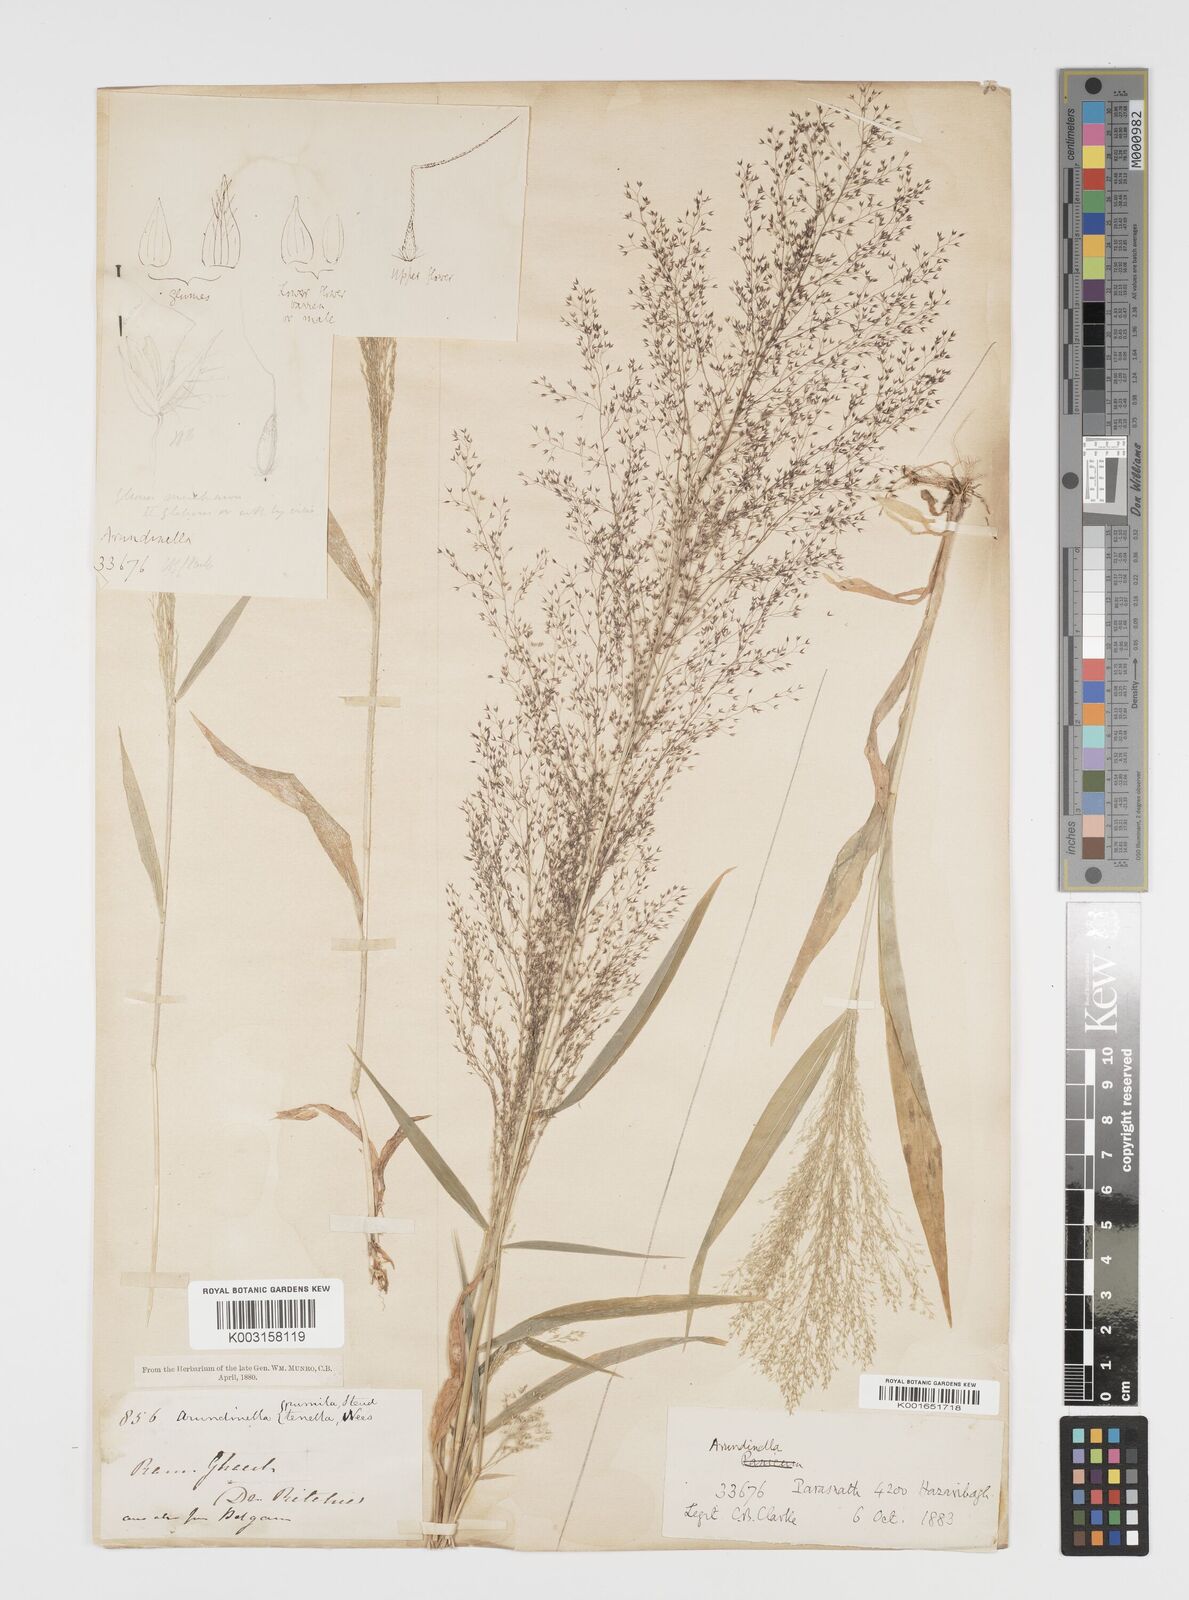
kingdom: Plantae
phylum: Tracheophyta
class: Liliopsida
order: Poales
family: Poaceae
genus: Arundinella
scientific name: Arundinella pumila
